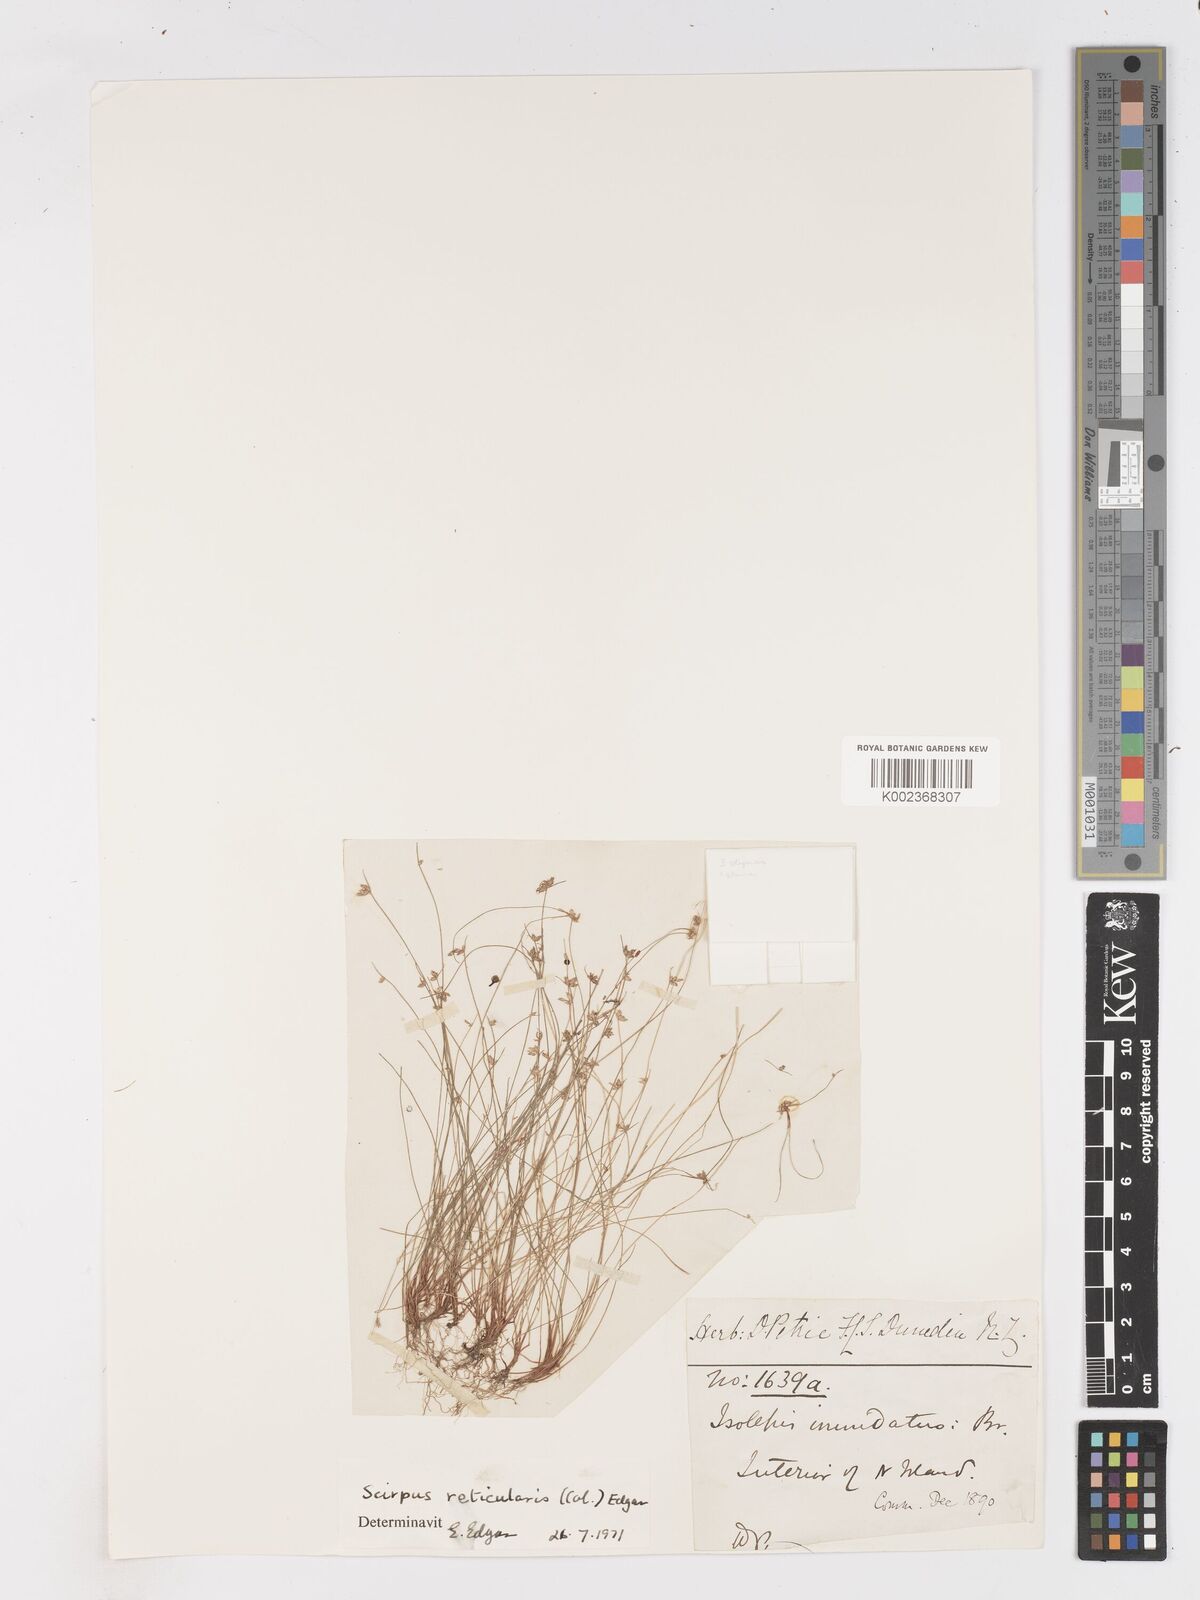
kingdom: Plantae
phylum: Tracheophyta
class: Liliopsida
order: Poales
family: Cyperaceae
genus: Isolepis
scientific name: Isolepis reticularis
